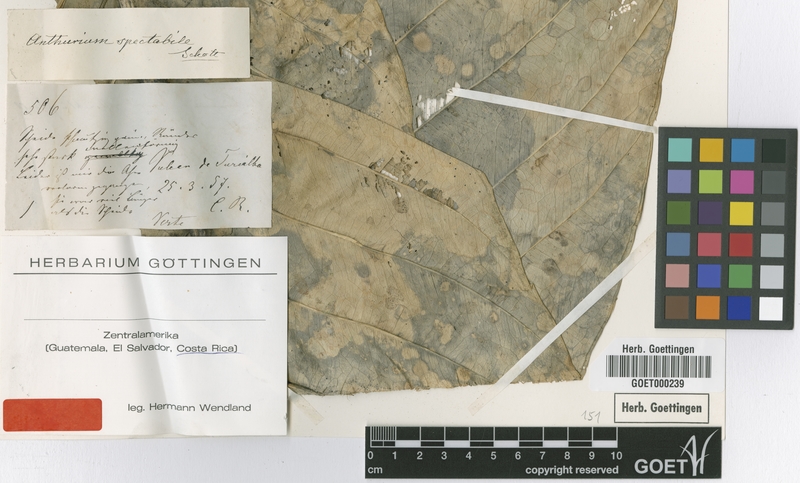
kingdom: Plantae
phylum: Tracheophyta
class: Liliopsida
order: Alismatales
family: Araceae
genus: Anthurium
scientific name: Anthurium spectabile
